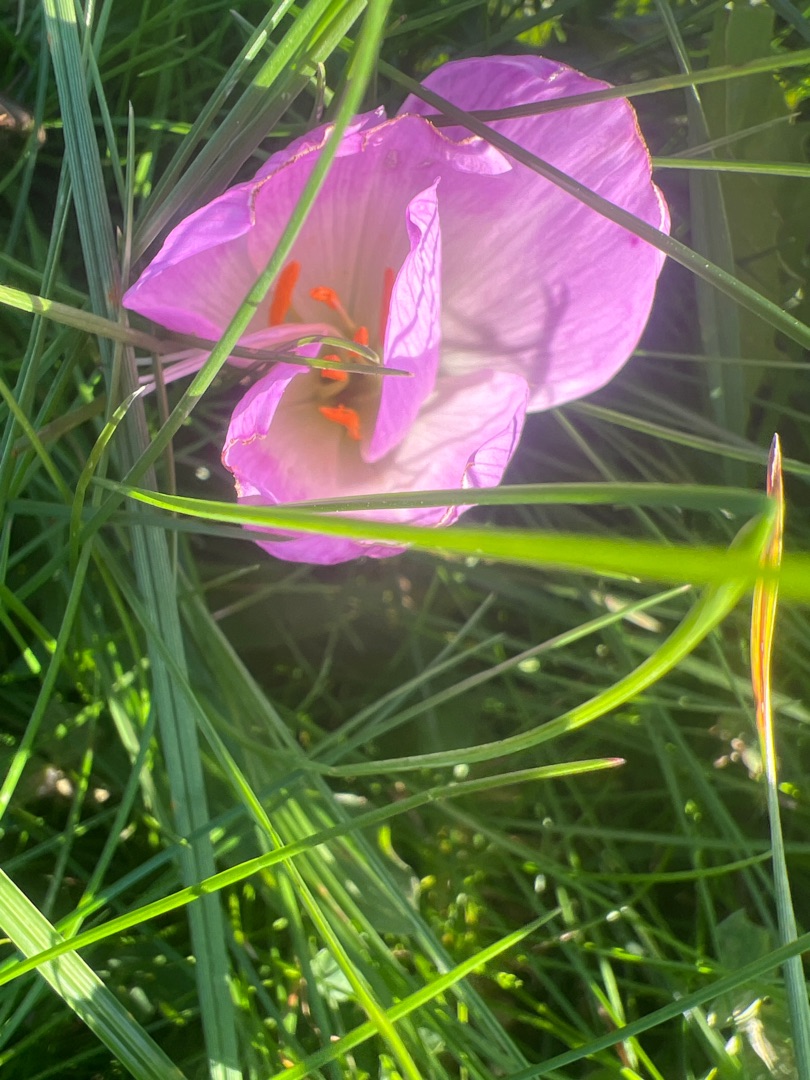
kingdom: Plantae
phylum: Tracheophyta
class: Liliopsida
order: Liliales
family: Colchicaceae
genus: Colchicum
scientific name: Colchicum autumnale
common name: Høst-tidløs
